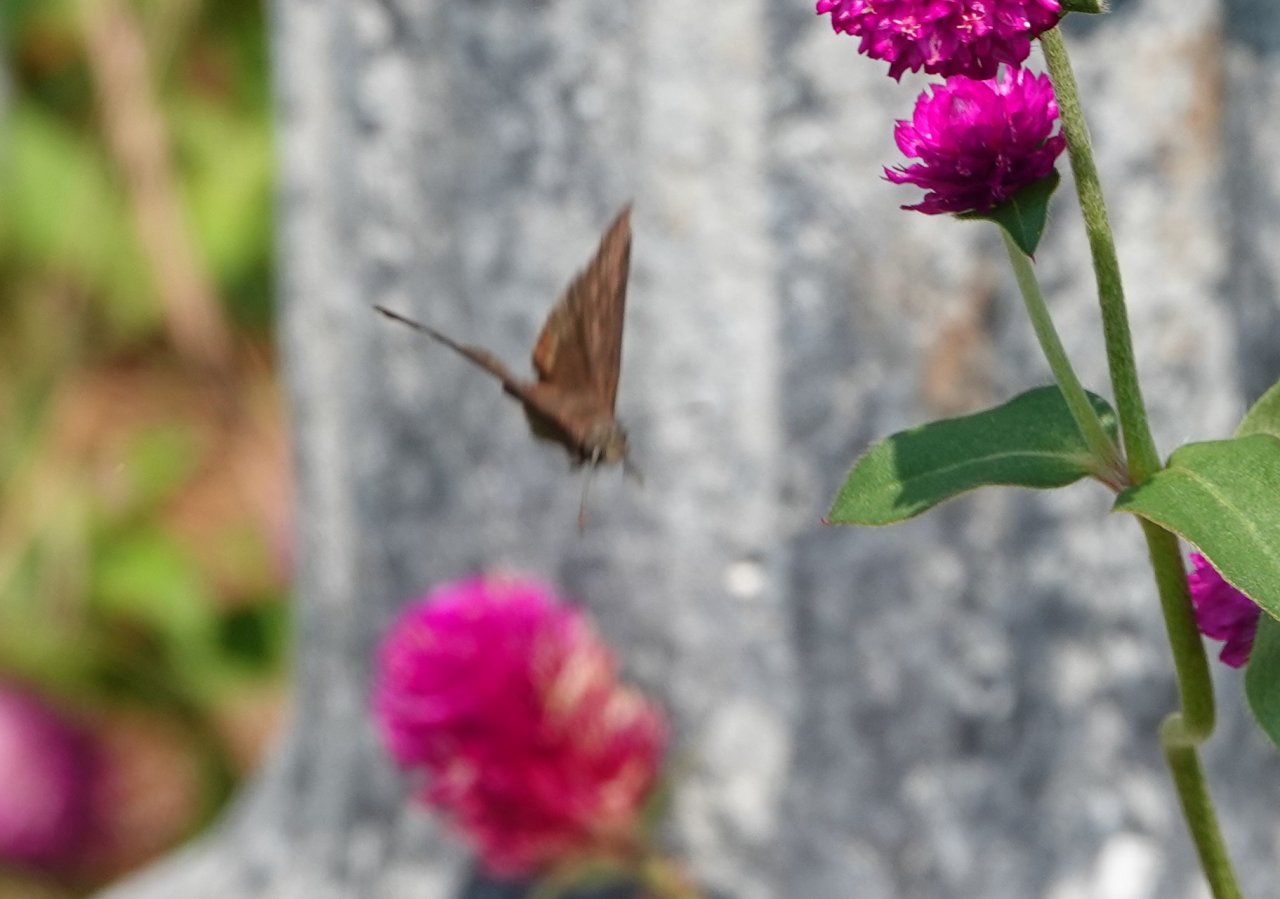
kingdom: Animalia
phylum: Arthropoda
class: Insecta
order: Lepidoptera
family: Hesperiidae
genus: Erynnis
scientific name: Erynnis
